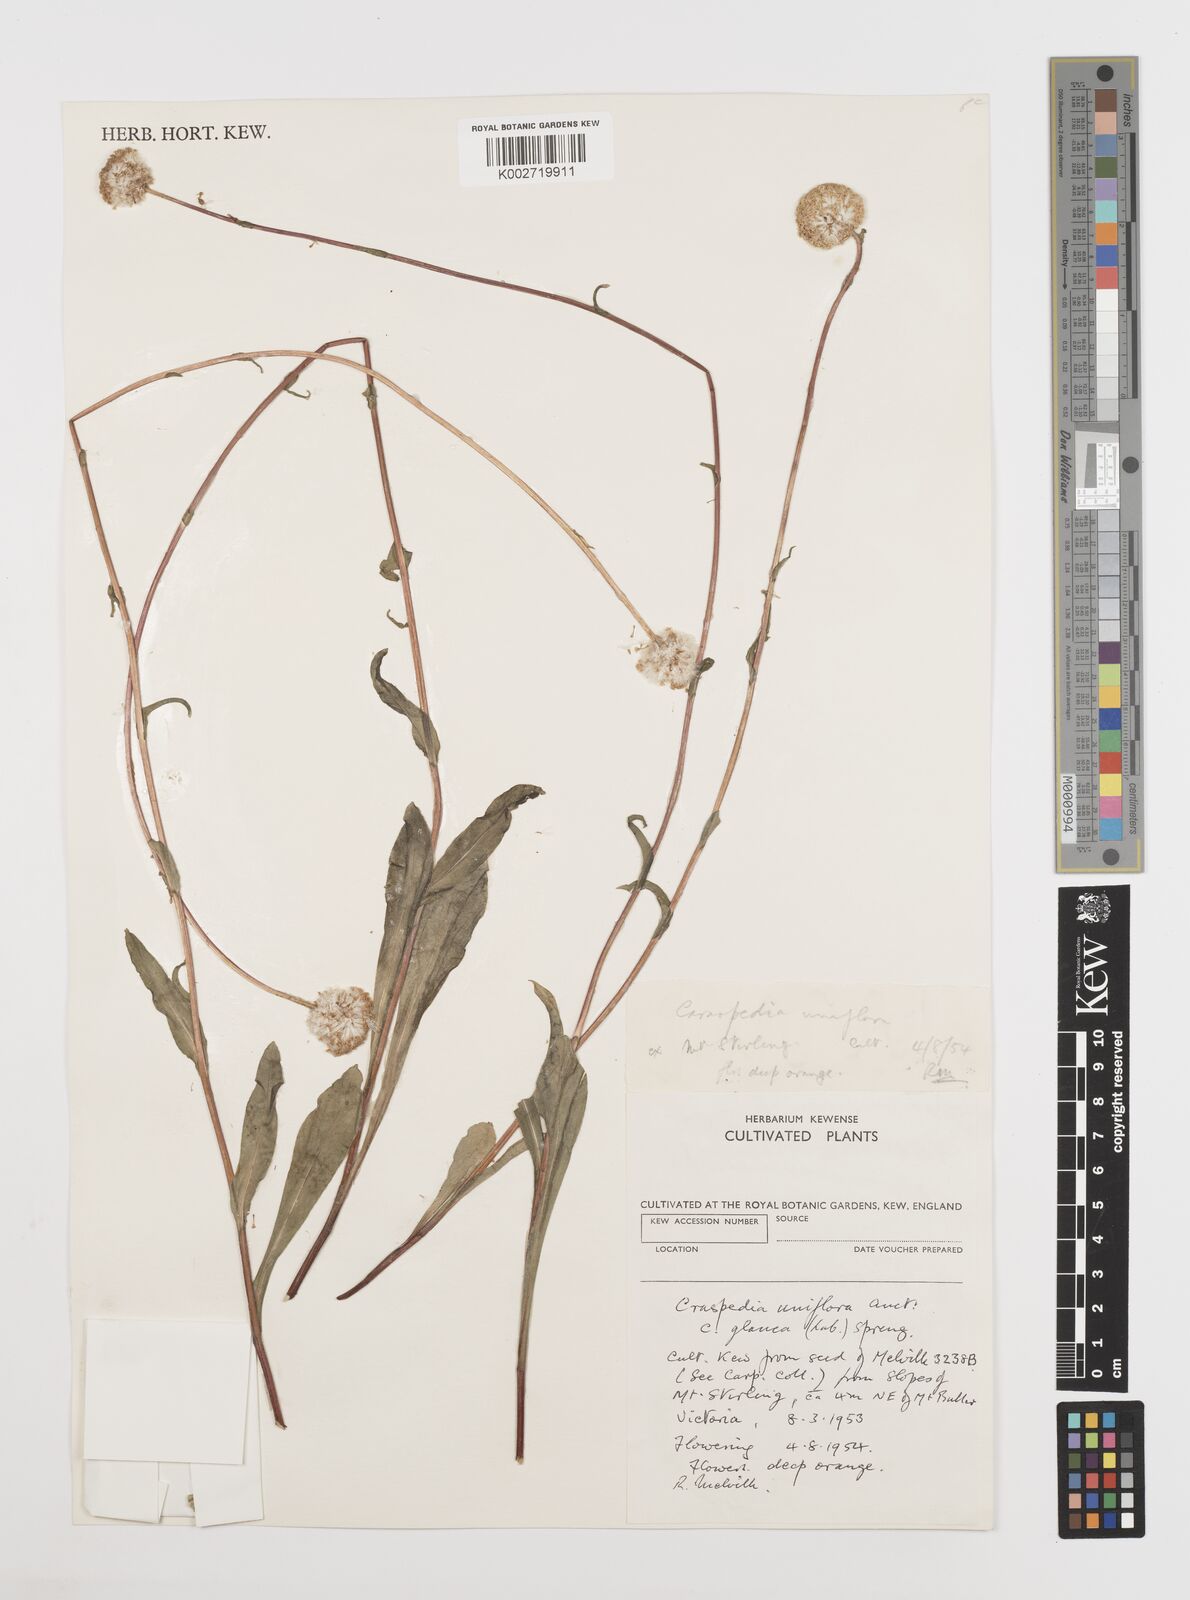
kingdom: Plantae
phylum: Tracheophyta
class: Magnoliopsida
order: Asterales
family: Asteraceae
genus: Craspedia
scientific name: Craspedia uniflora
